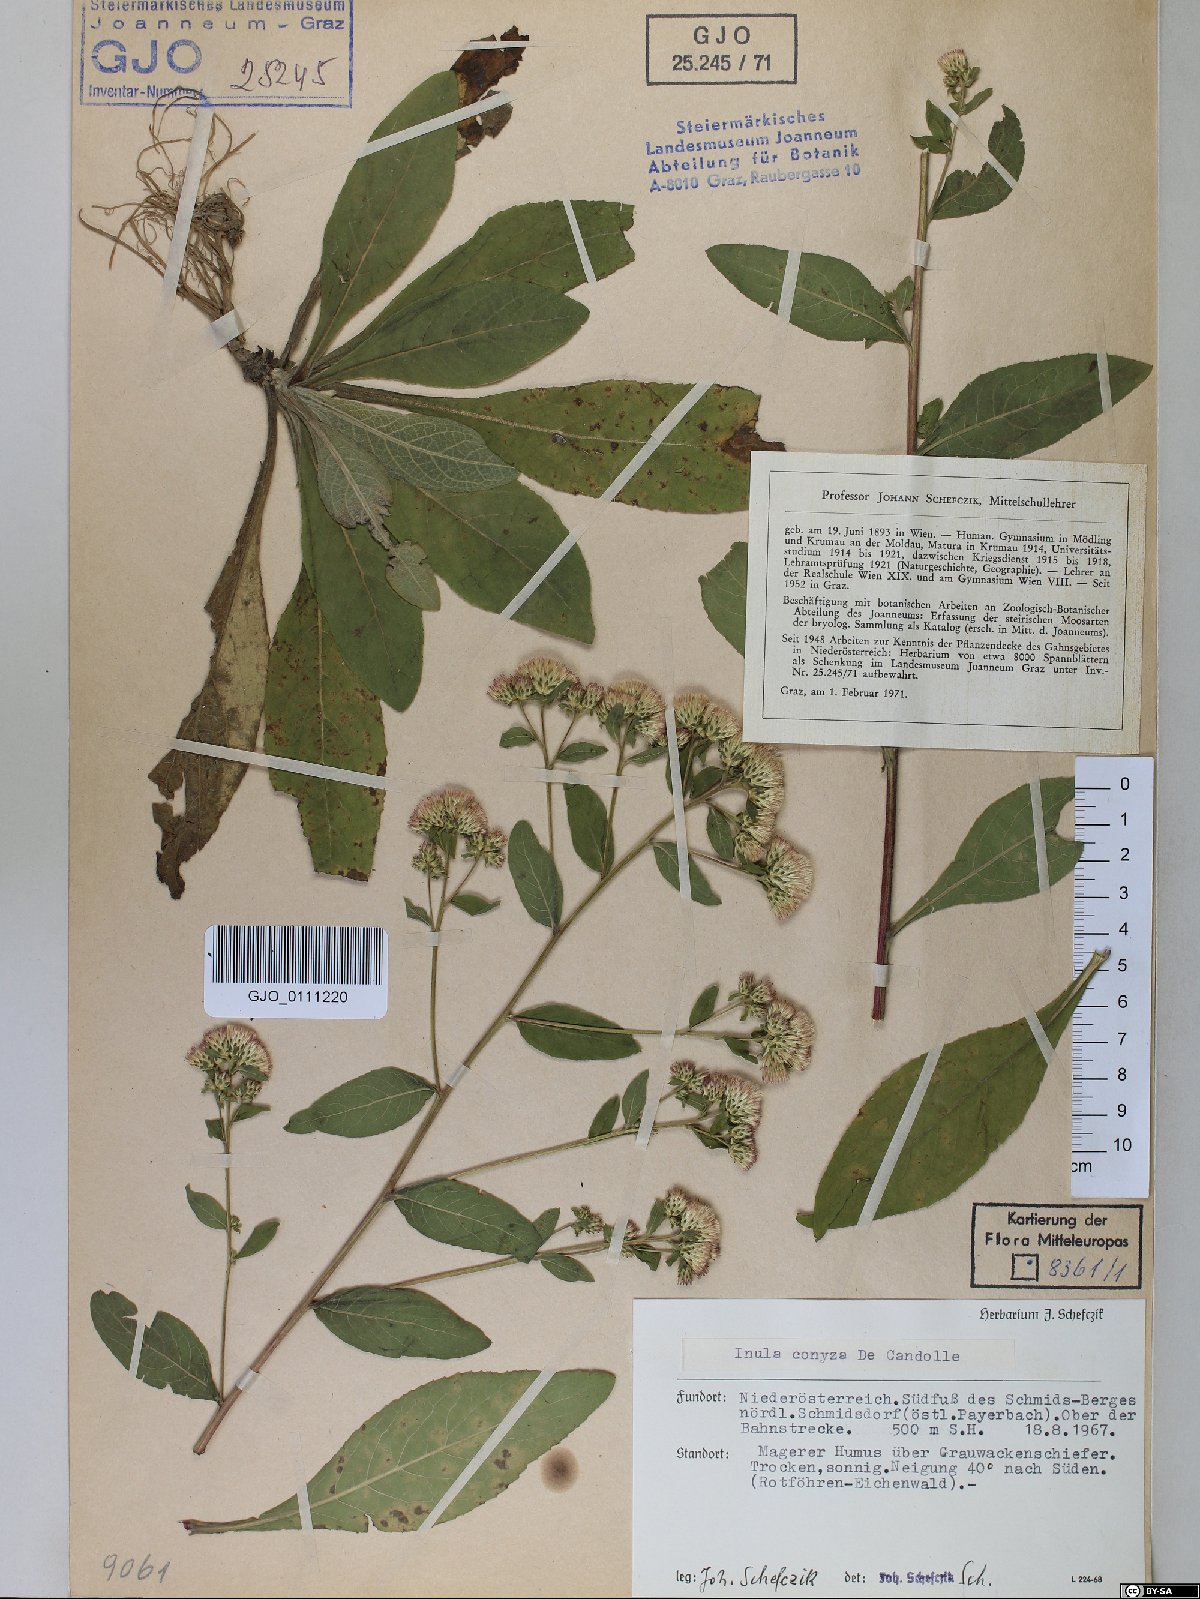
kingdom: Plantae
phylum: Tracheophyta
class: Magnoliopsida
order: Asterales
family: Asteraceae
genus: Pentanema
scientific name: Pentanema squarrosum
